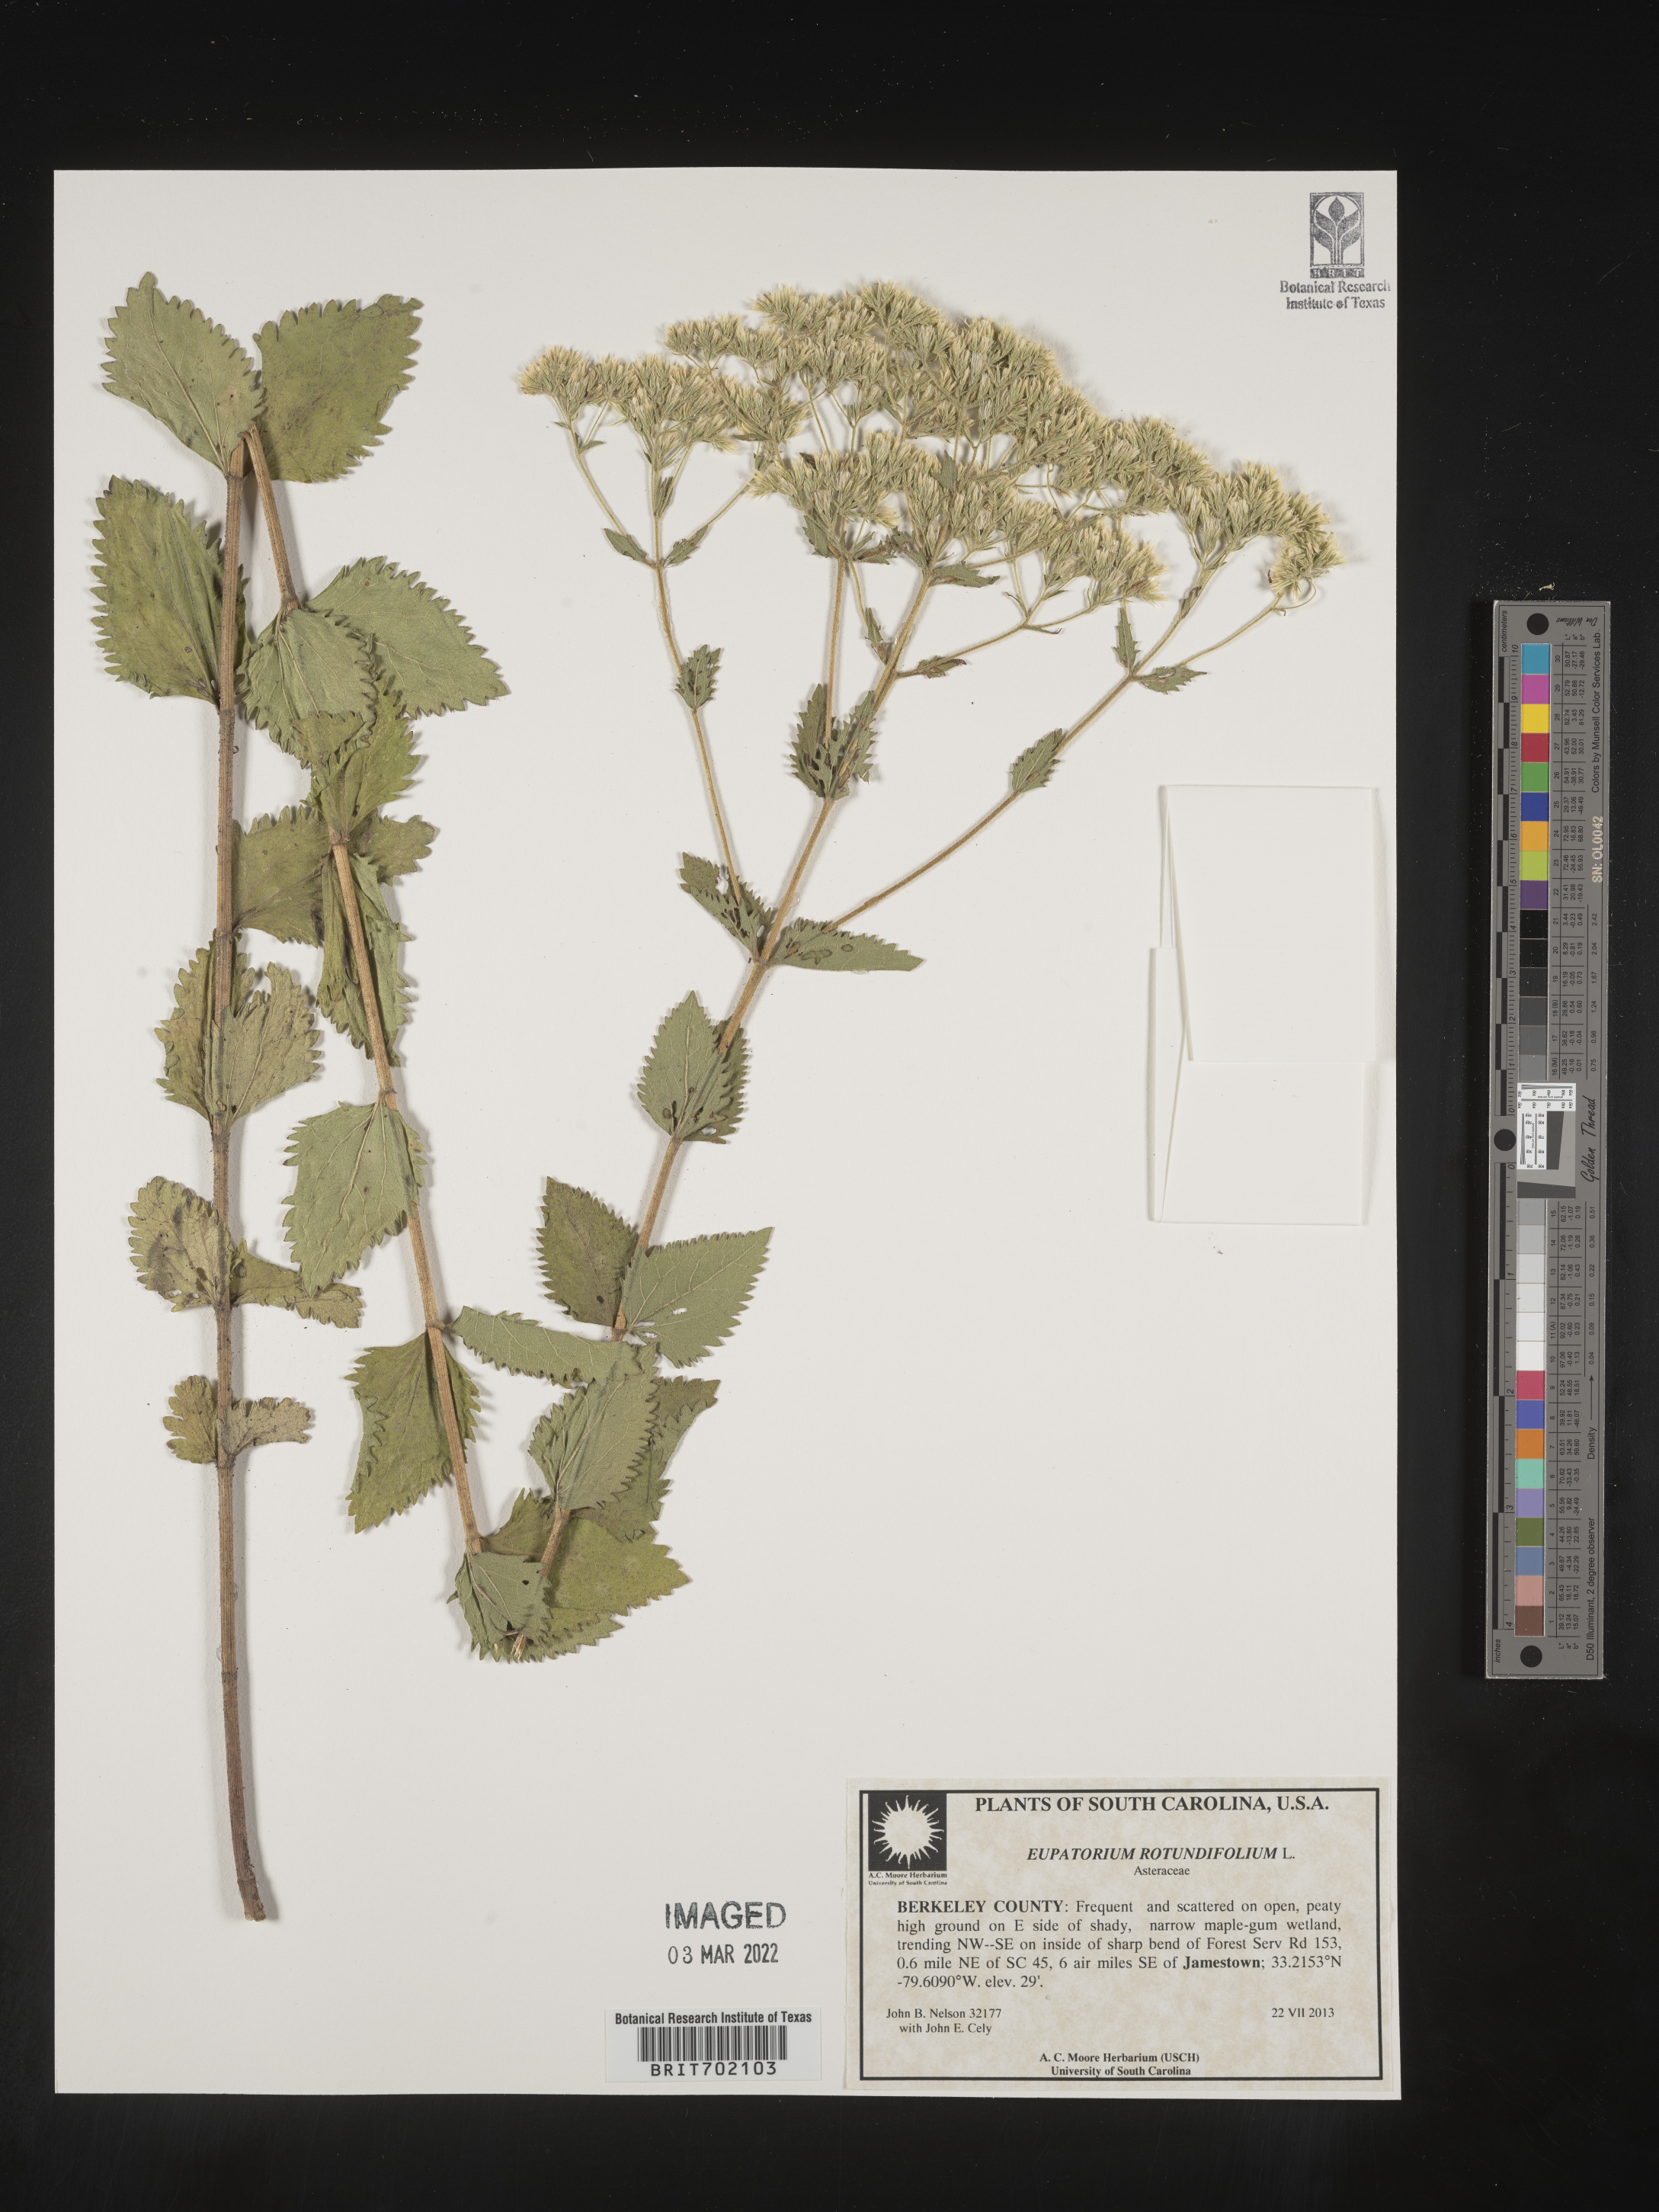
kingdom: Plantae
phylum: Tracheophyta
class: Magnoliopsida
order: Asterales
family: Asteraceae
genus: Eupatorium
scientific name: Eupatorium rotundifolium
